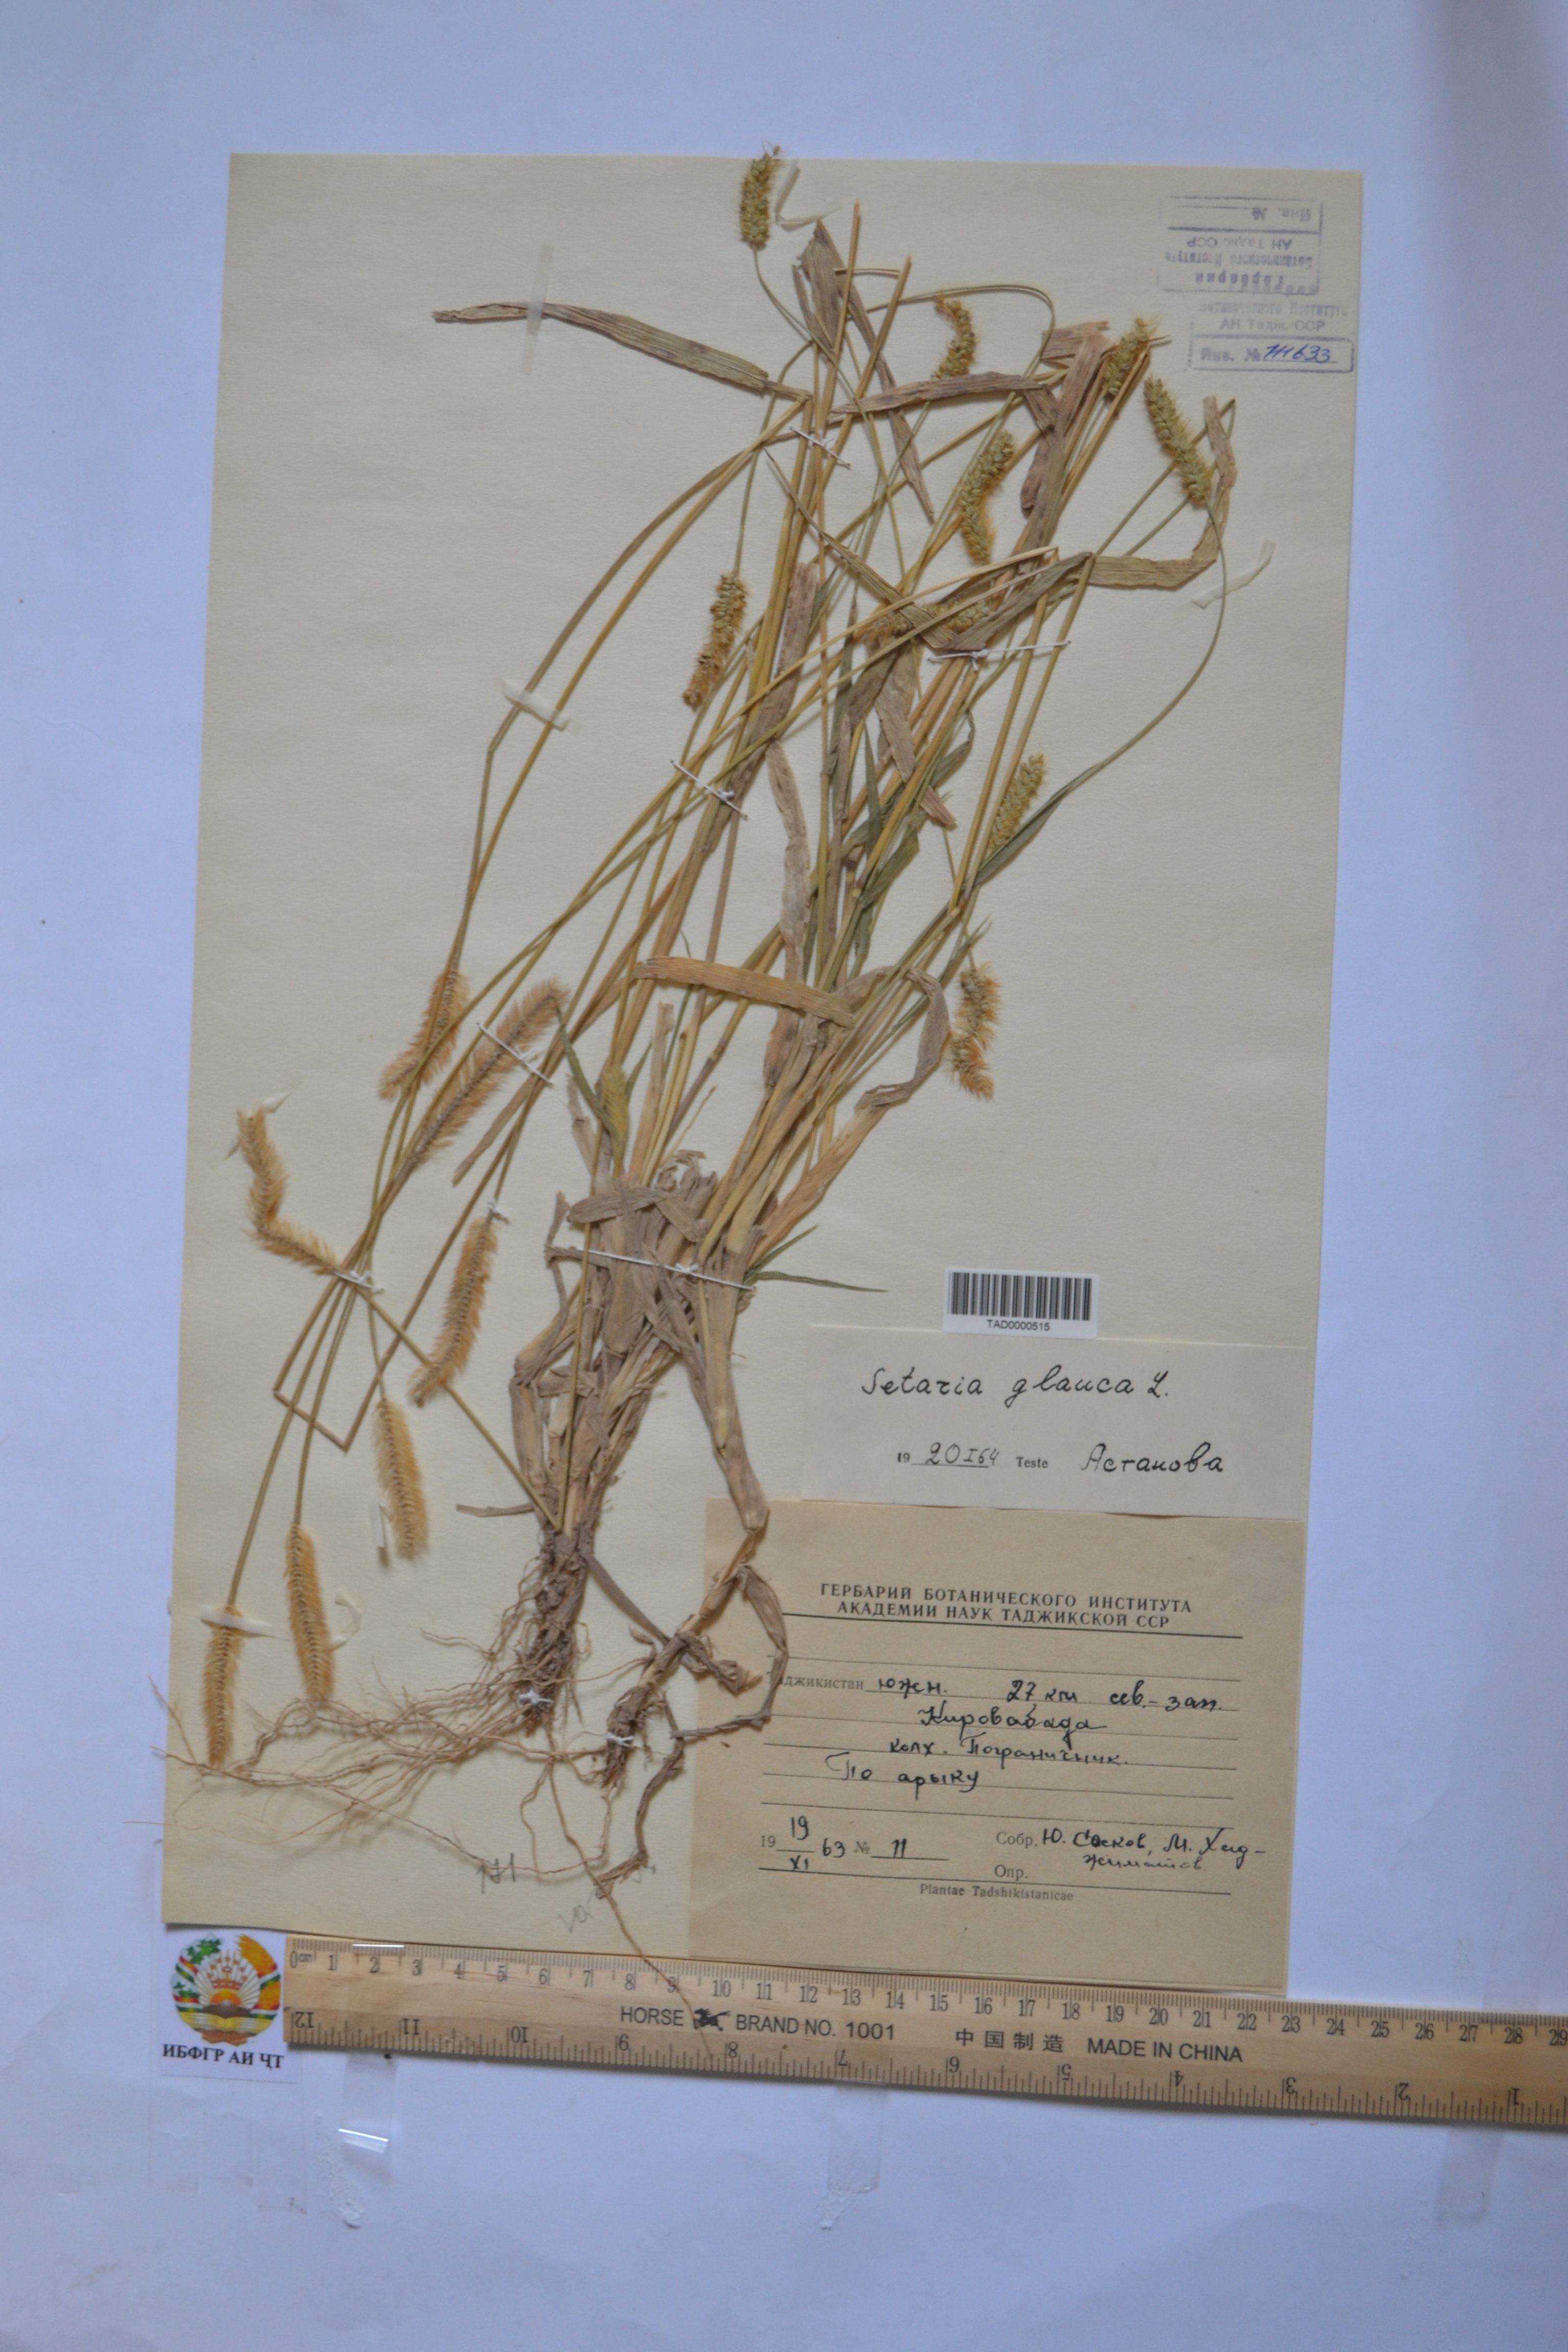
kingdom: Plantae
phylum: Tracheophyta
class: Liliopsida
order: Poales
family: Poaceae
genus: Setaria
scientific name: Setaria glauca
